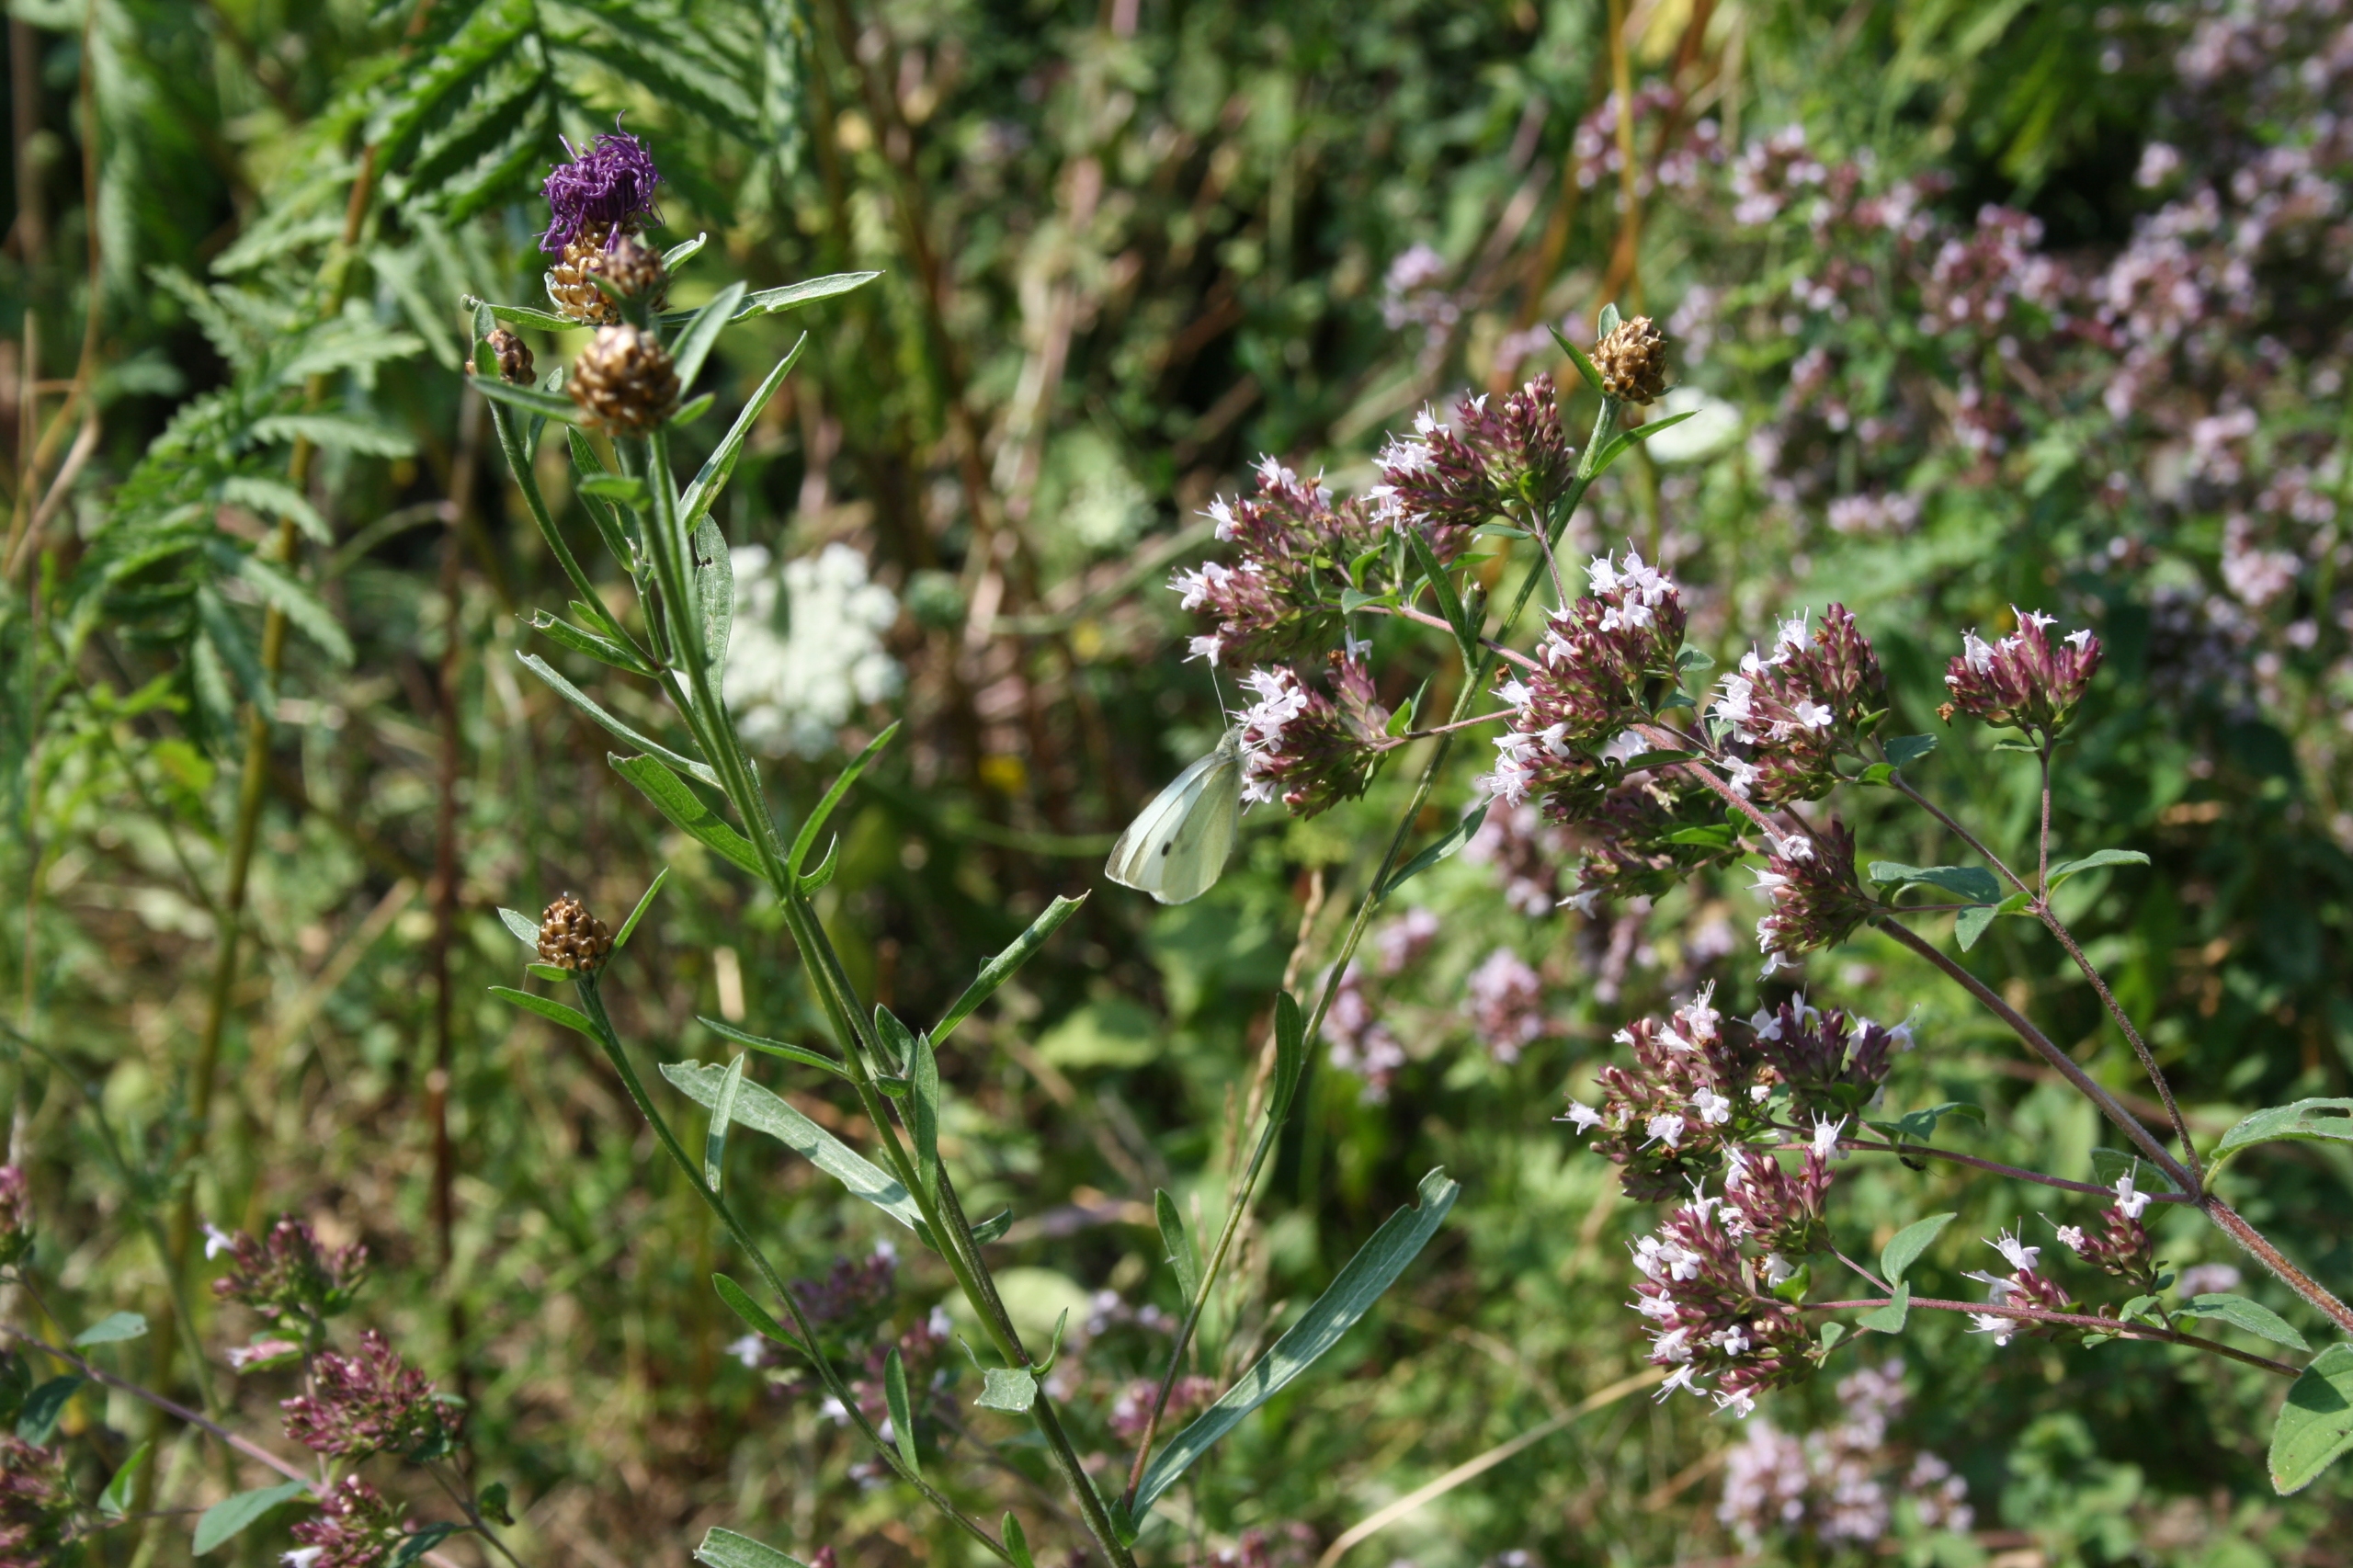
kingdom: Animalia
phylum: Arthropoda
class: Insecta
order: Lepidoptera
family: Pieridae
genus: Pieris
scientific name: Pieris rapae
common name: Lille kålsommerfugl
